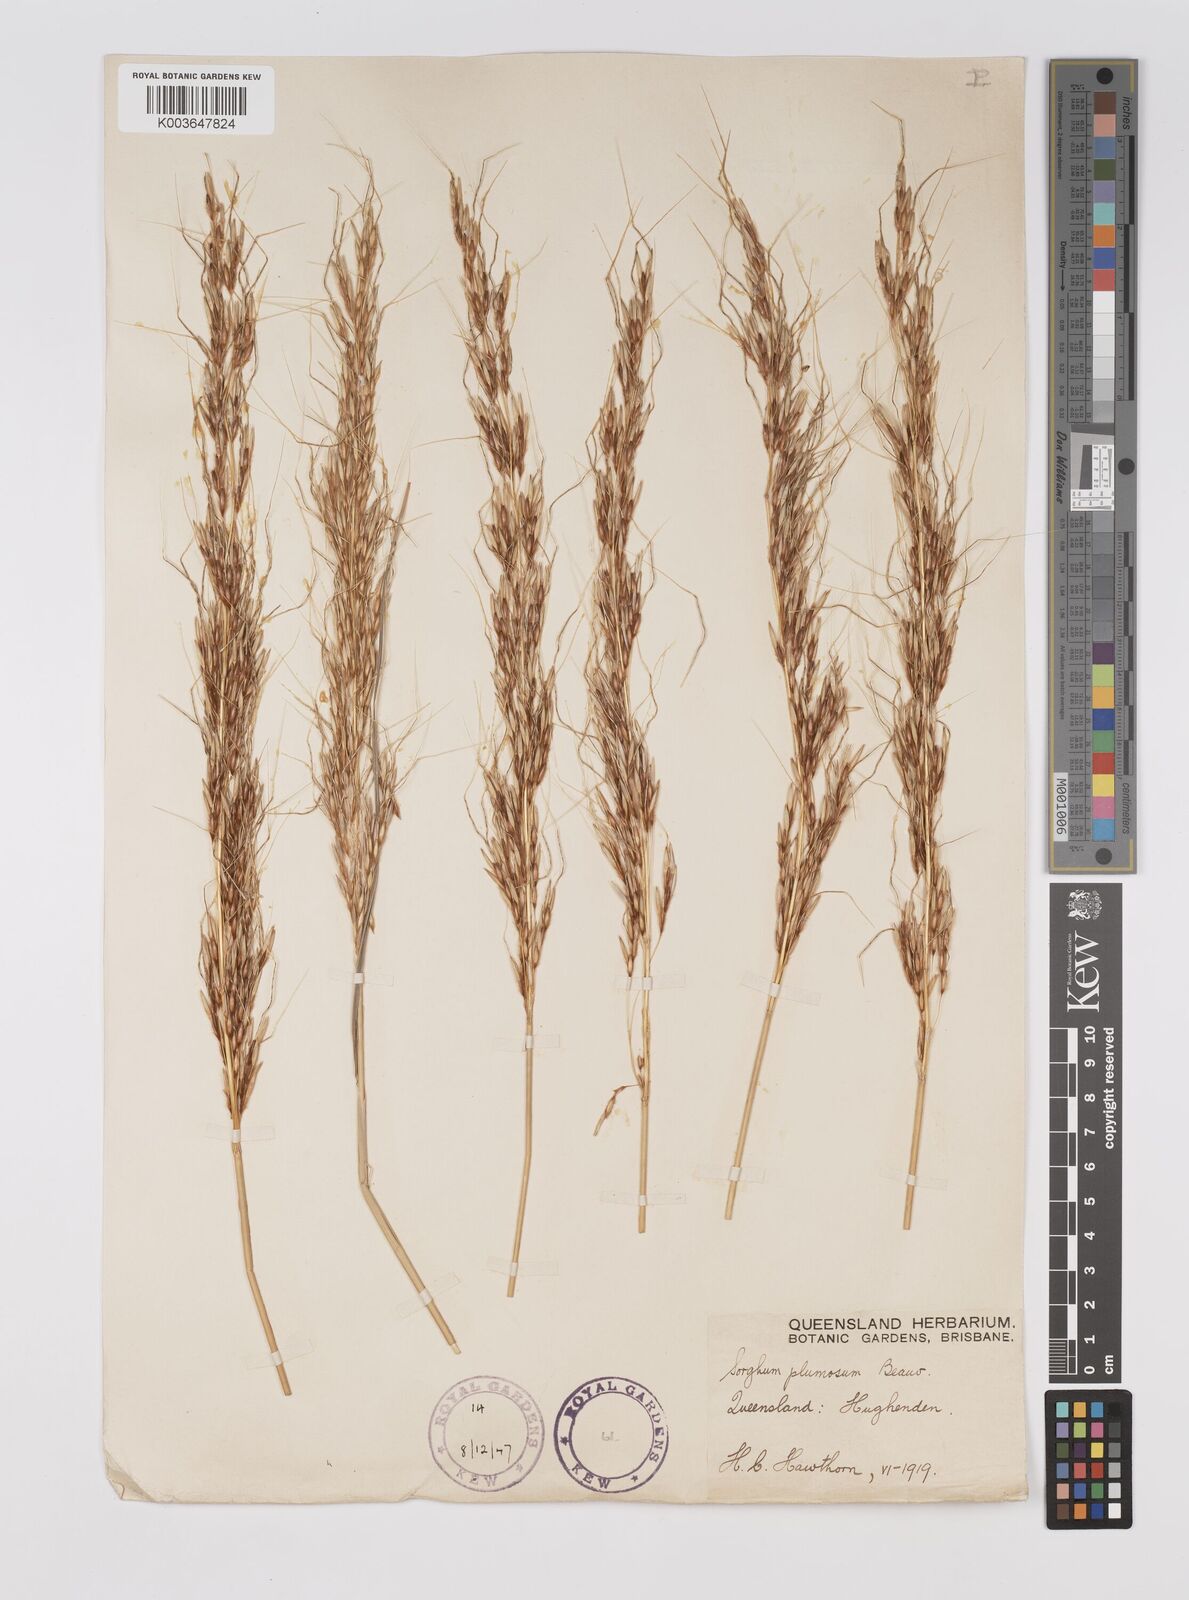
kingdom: Plantae
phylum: Tracheophyta
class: Liliopsida
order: Poales
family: Poaceae
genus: Sarga
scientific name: Sarga plumosa
